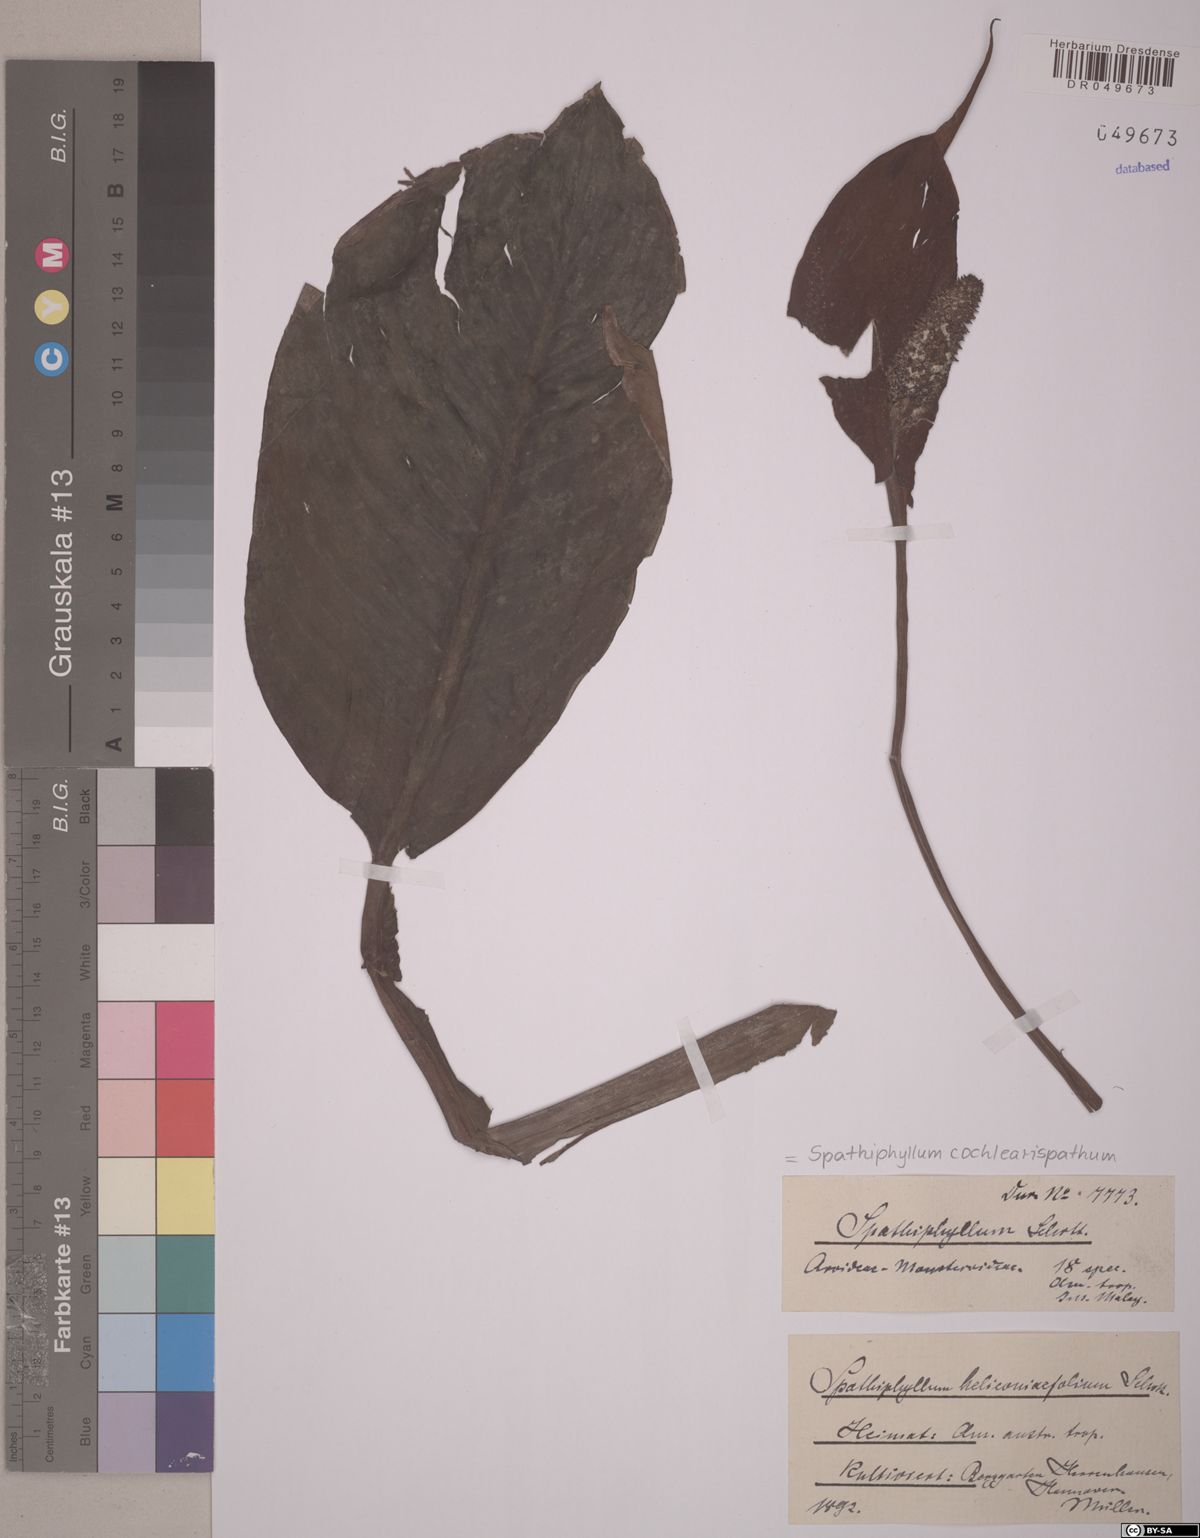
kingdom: Plantae
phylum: Tracheophyta
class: Liliopsida
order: Alismatales
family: Araceae
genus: Spathiphyllum
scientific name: Spathiphyllum cochlearispathum
